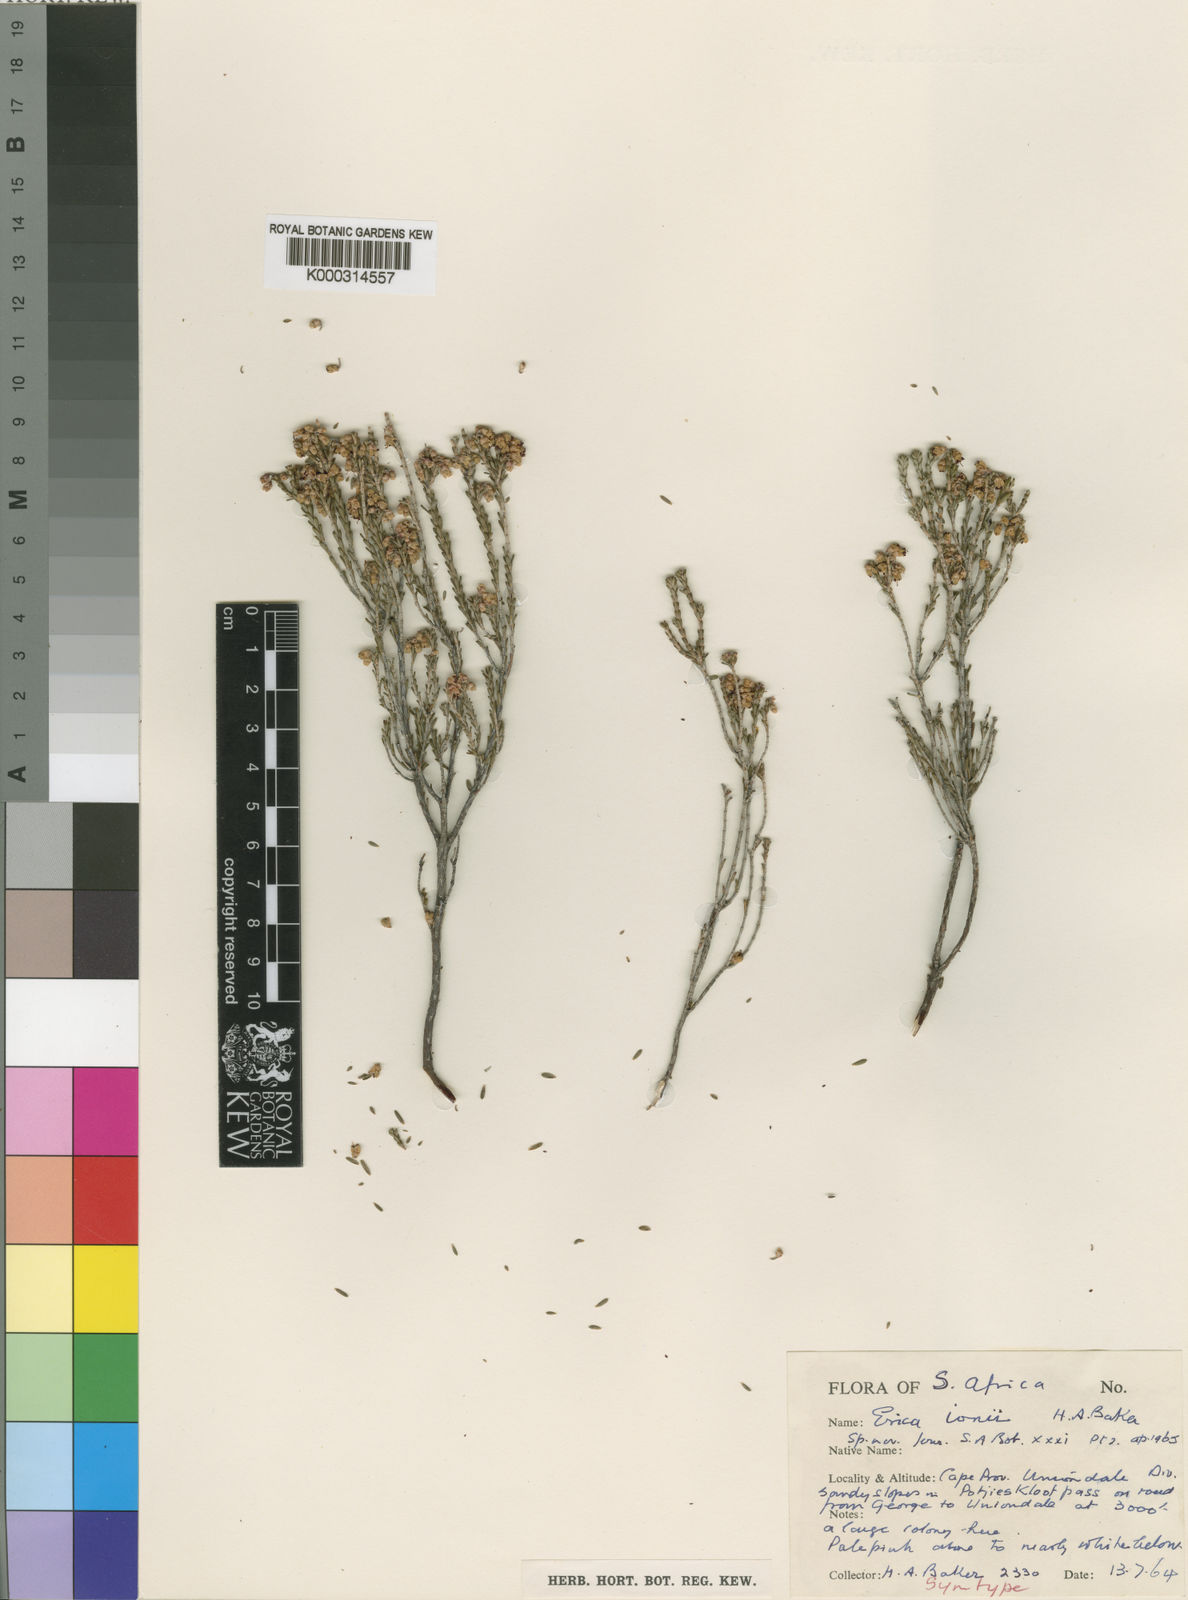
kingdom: Plantae
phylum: Tracheophyta
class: Magnoliopsida
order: Ericales
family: Ericaceae
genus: Erica
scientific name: Erica umbelliflora
